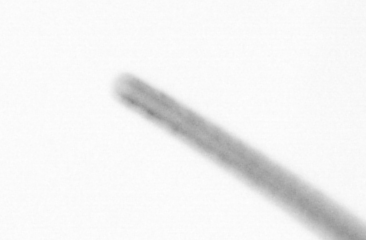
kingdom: Chromista
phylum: Ochrophyta
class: Bacillariophyceae
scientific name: Bacillariophyceae
